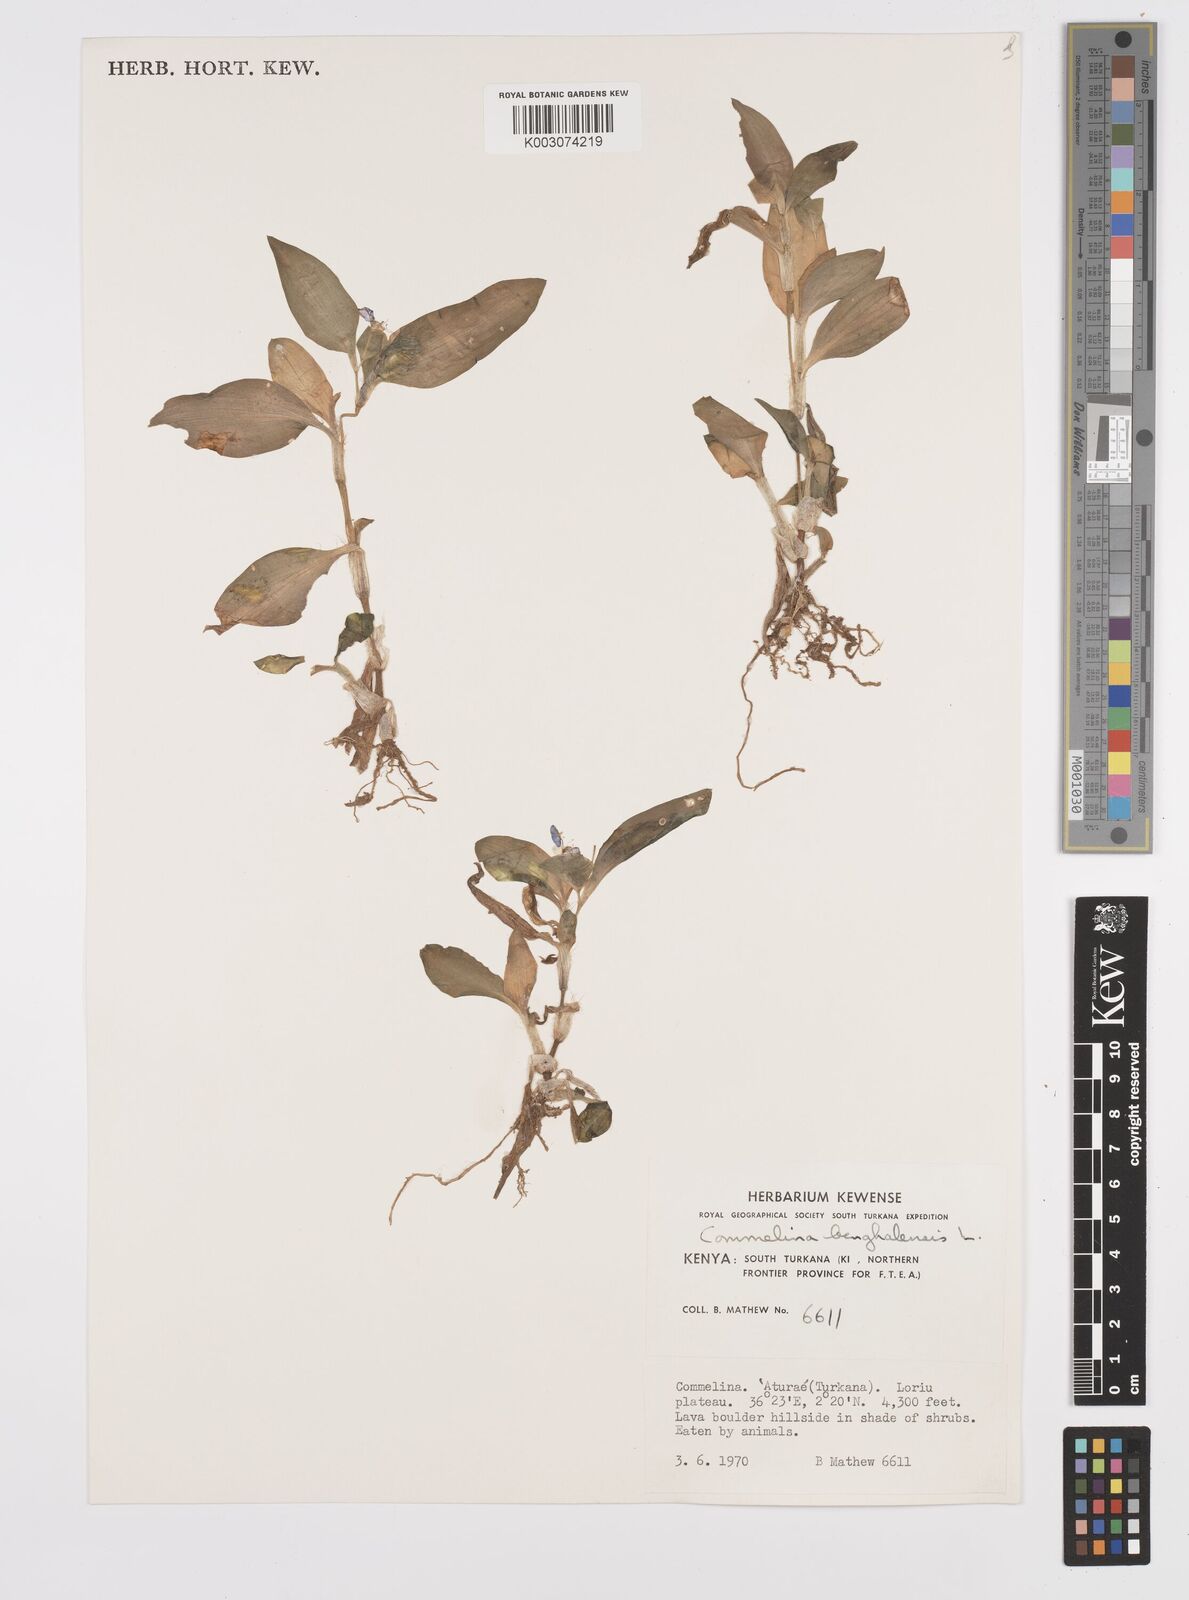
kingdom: Plantae
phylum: Tracheophyta
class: Liliopsida
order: Commelinales
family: Commelinaceae
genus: Commelina
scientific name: Commelina benghalensis
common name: Jio
